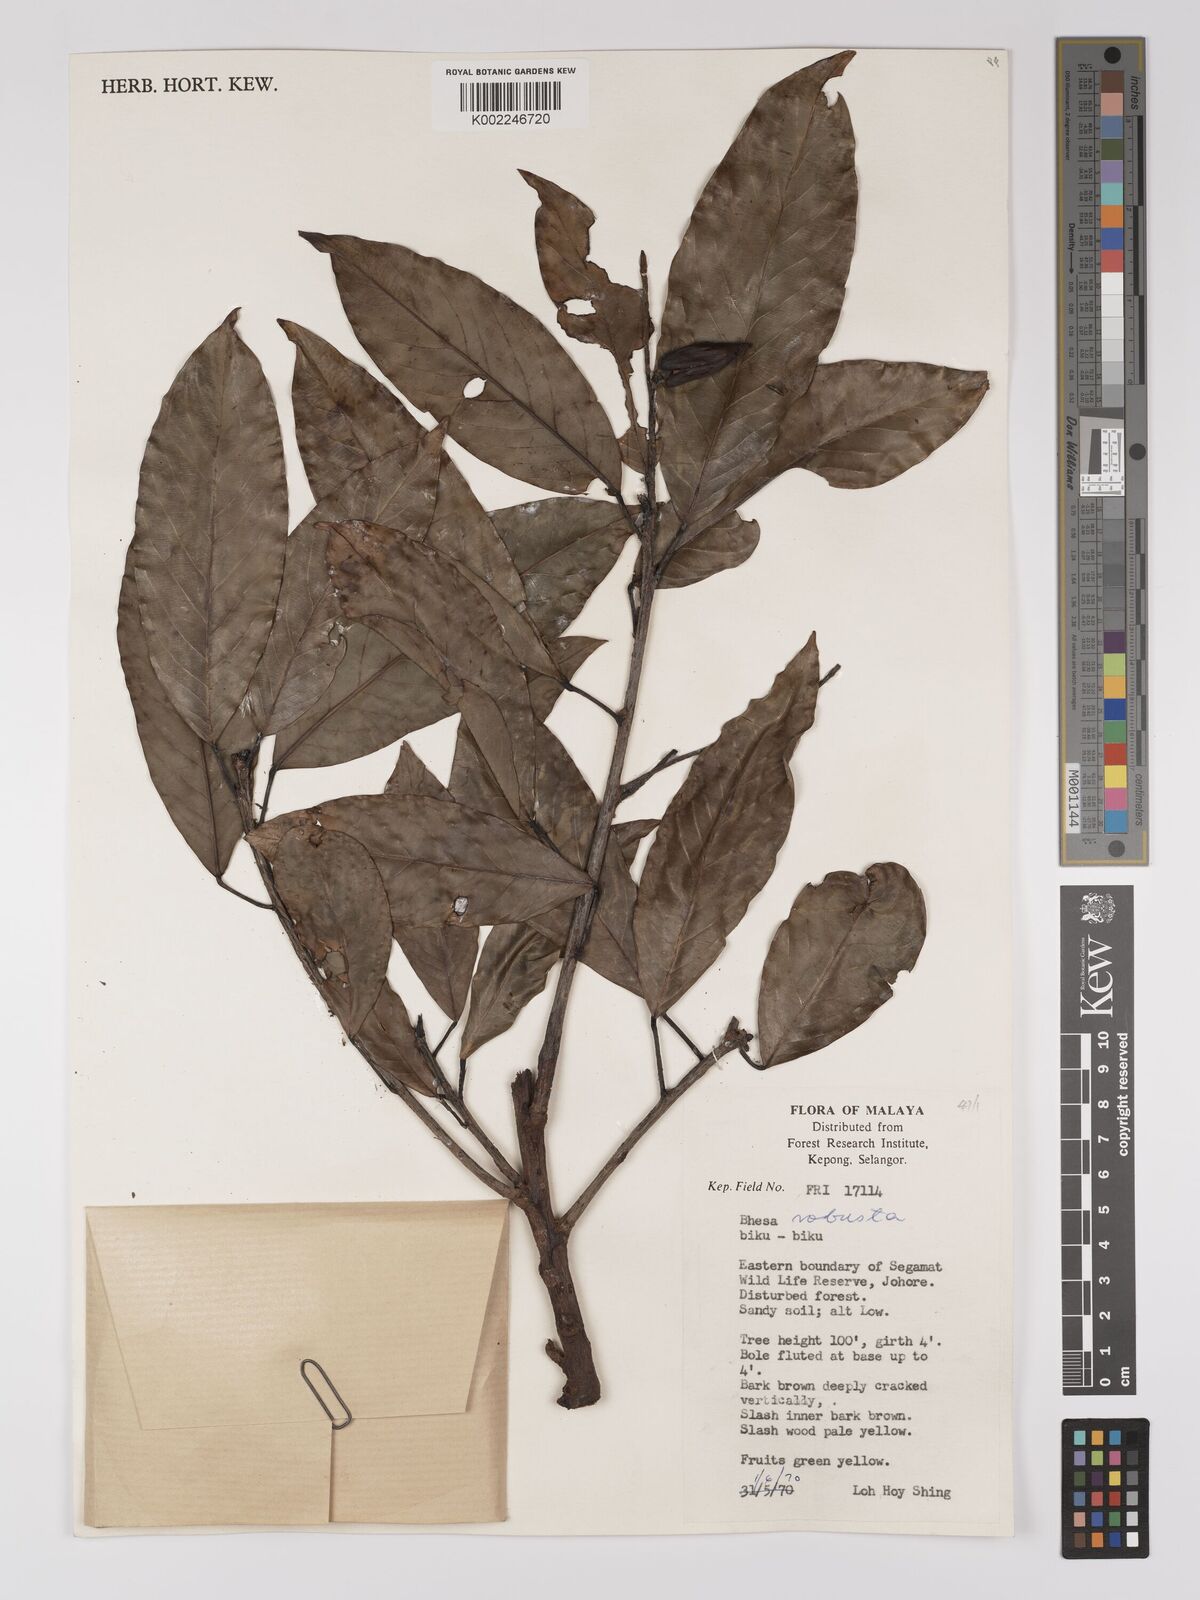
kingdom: Plantae
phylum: Tracheophyta
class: Magnoliopsida
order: Malpighiales
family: Centroplacaceae
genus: Bhesa
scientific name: Bhesa robusta
